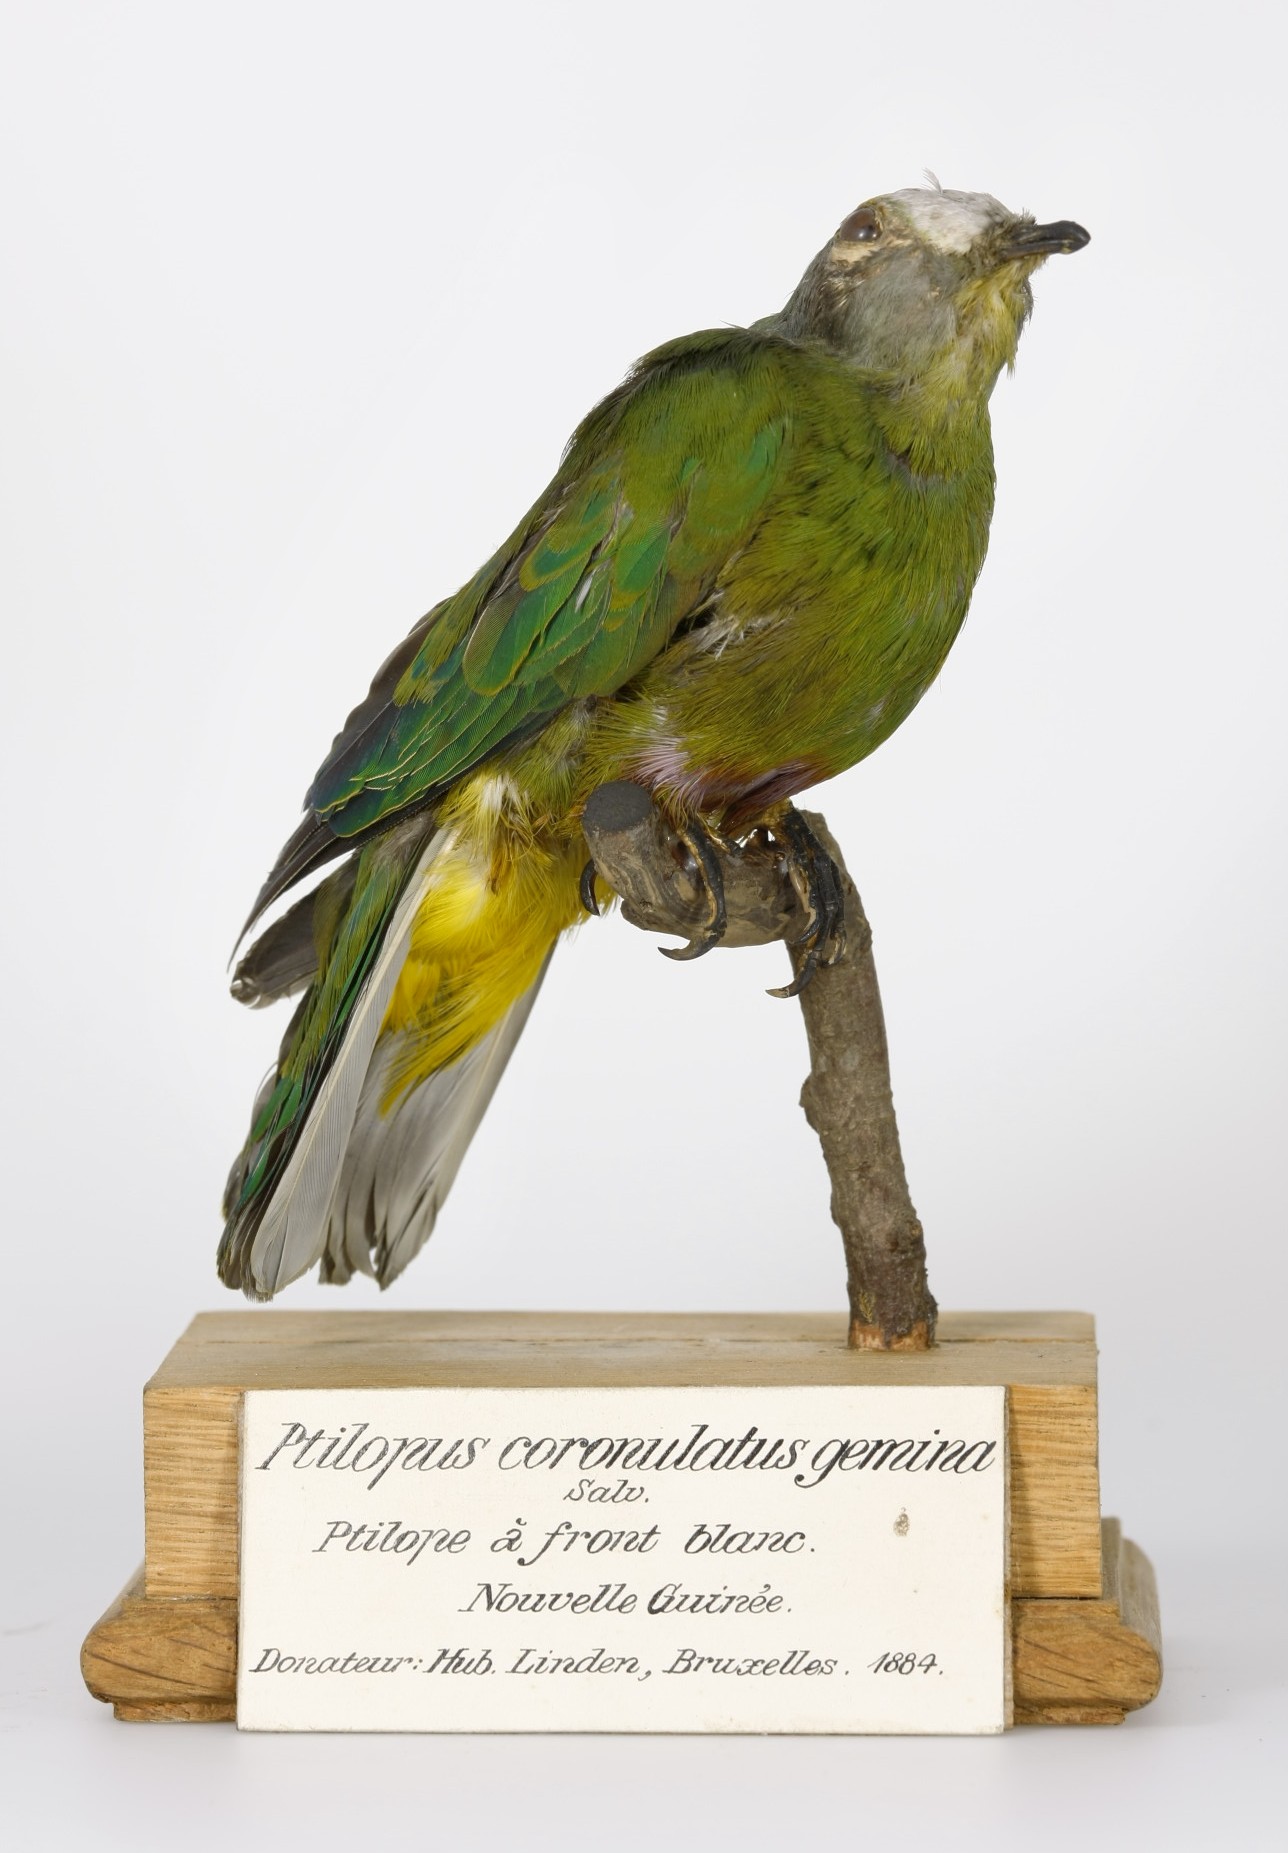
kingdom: Animalia
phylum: Chordata
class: Aves
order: Columbiformes
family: Columbidae
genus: Ptilinopus
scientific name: Ptilinopus coronulatus
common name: Coroneted fruit dove
